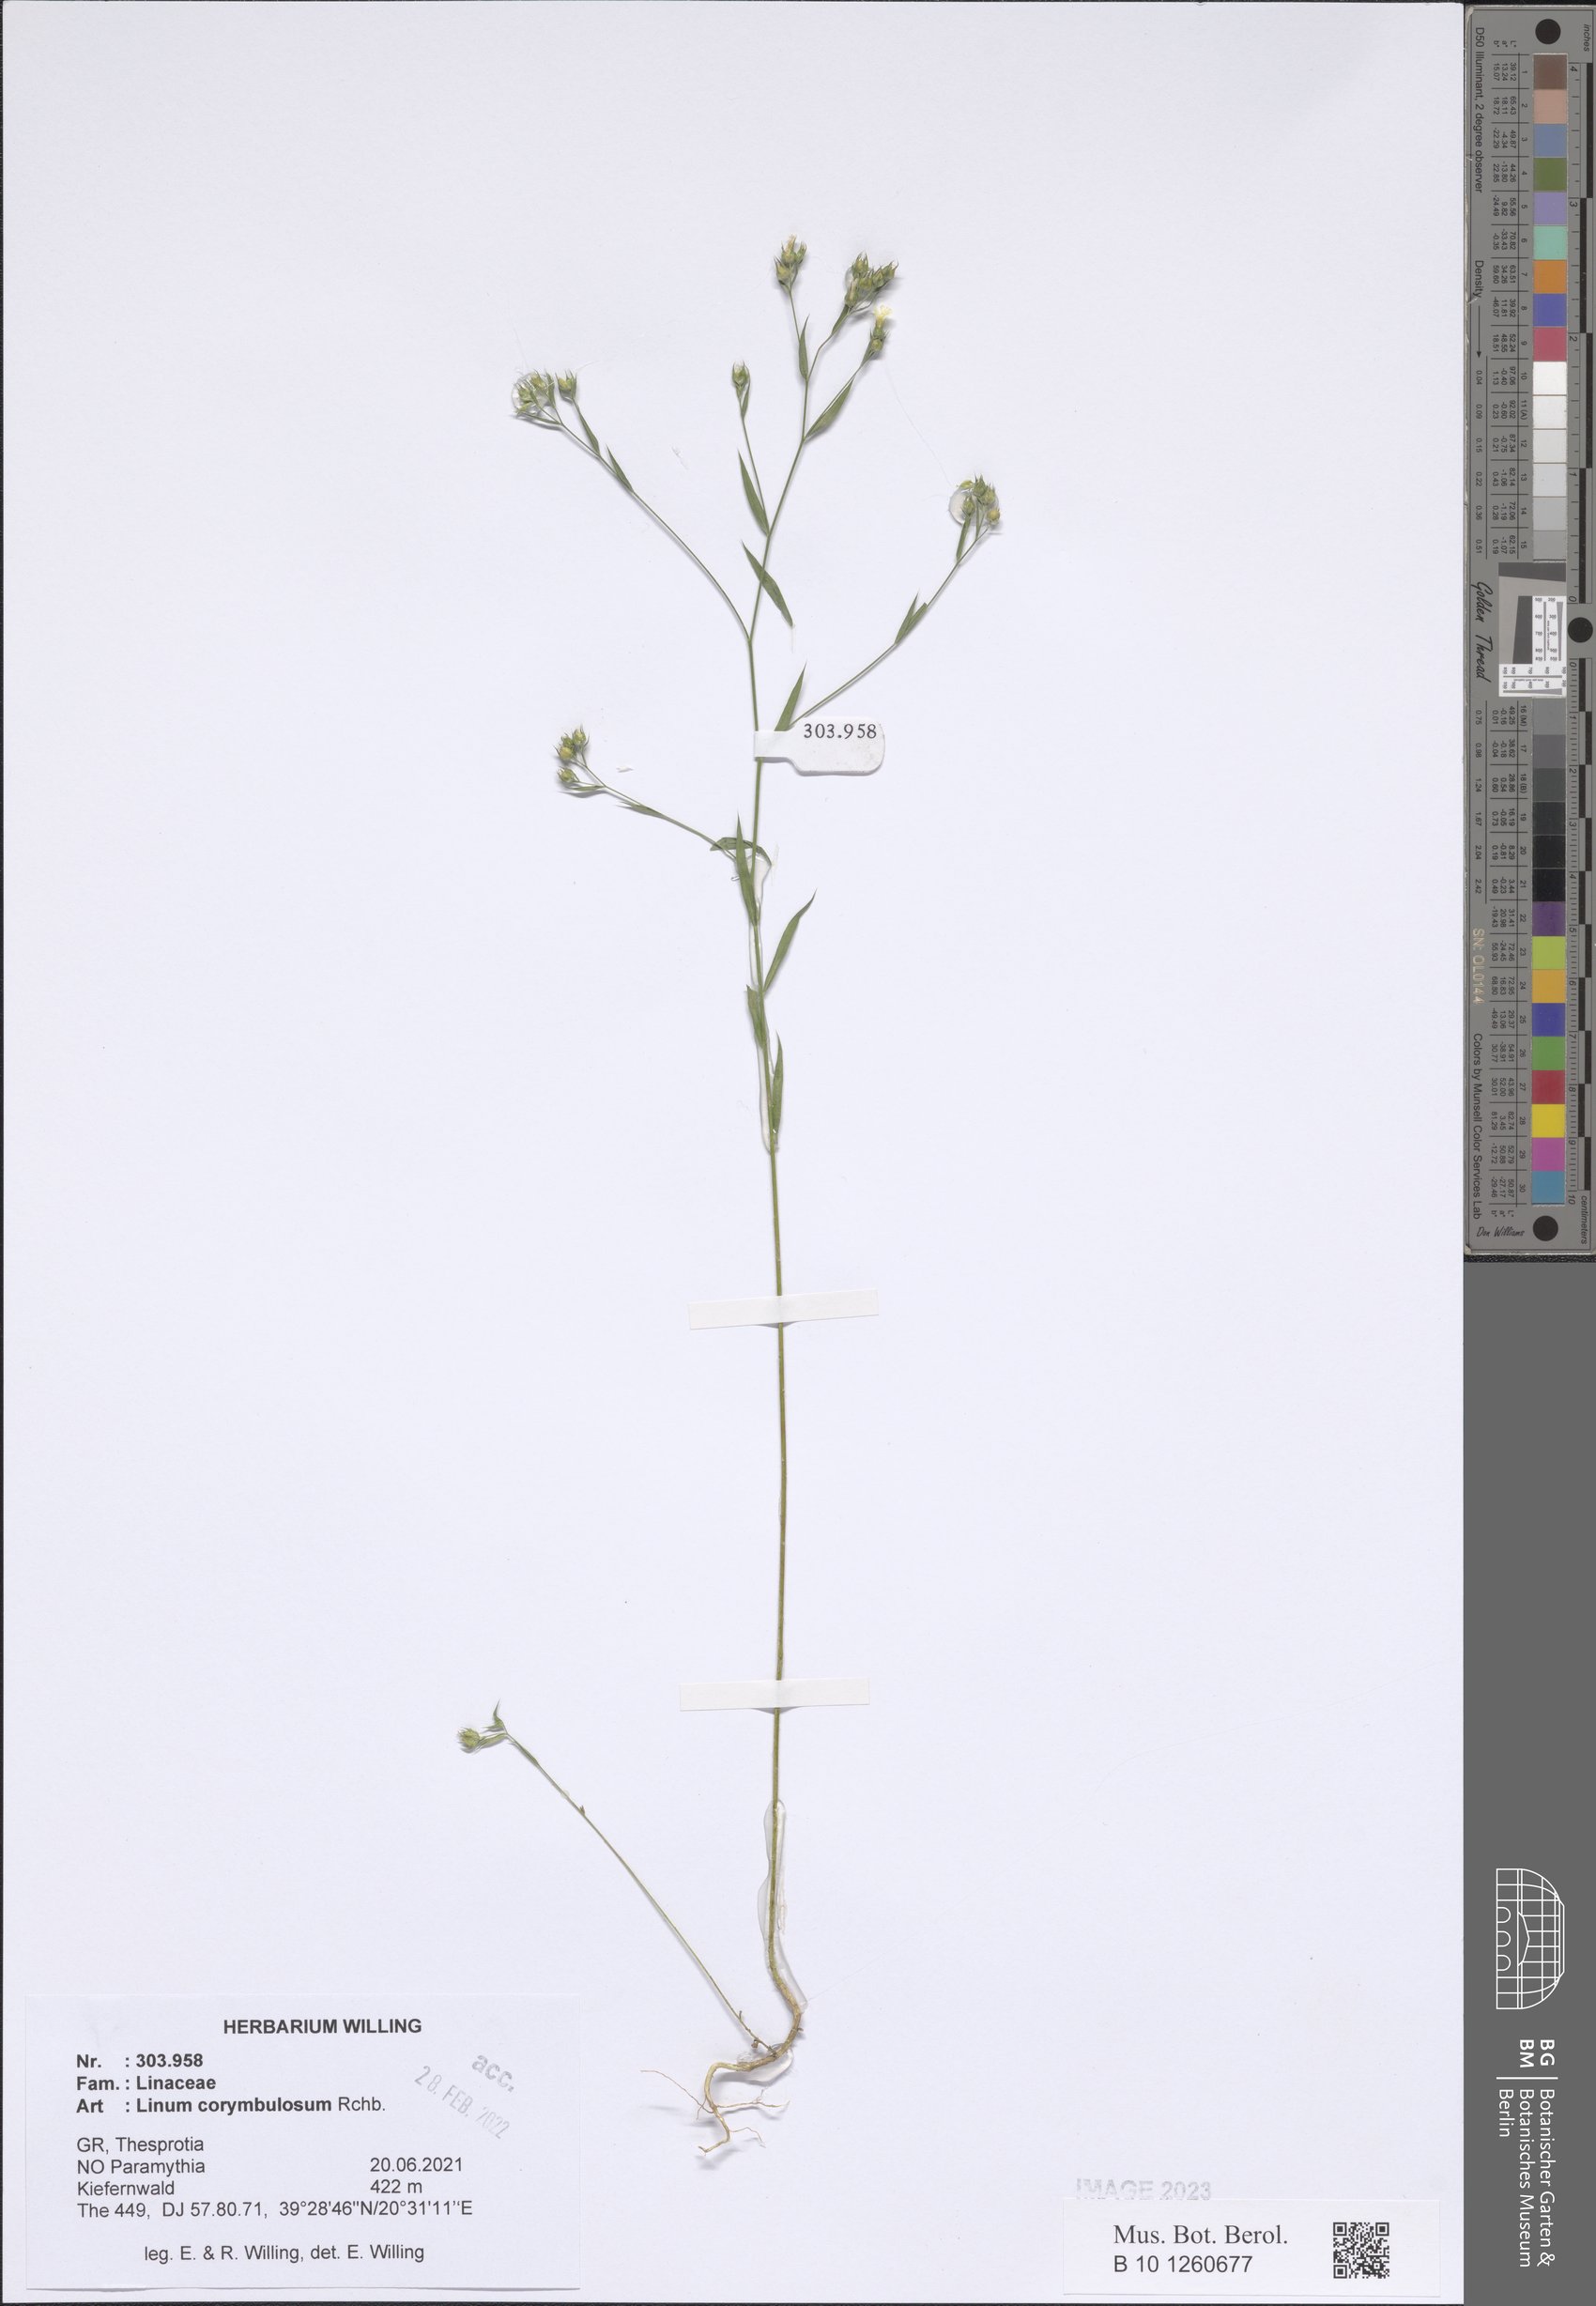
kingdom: Plantae
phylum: Tracheophyta
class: Magnoliopsida
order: Malpighiales
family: Linaceae
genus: Linum
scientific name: Linum corymbulosum
